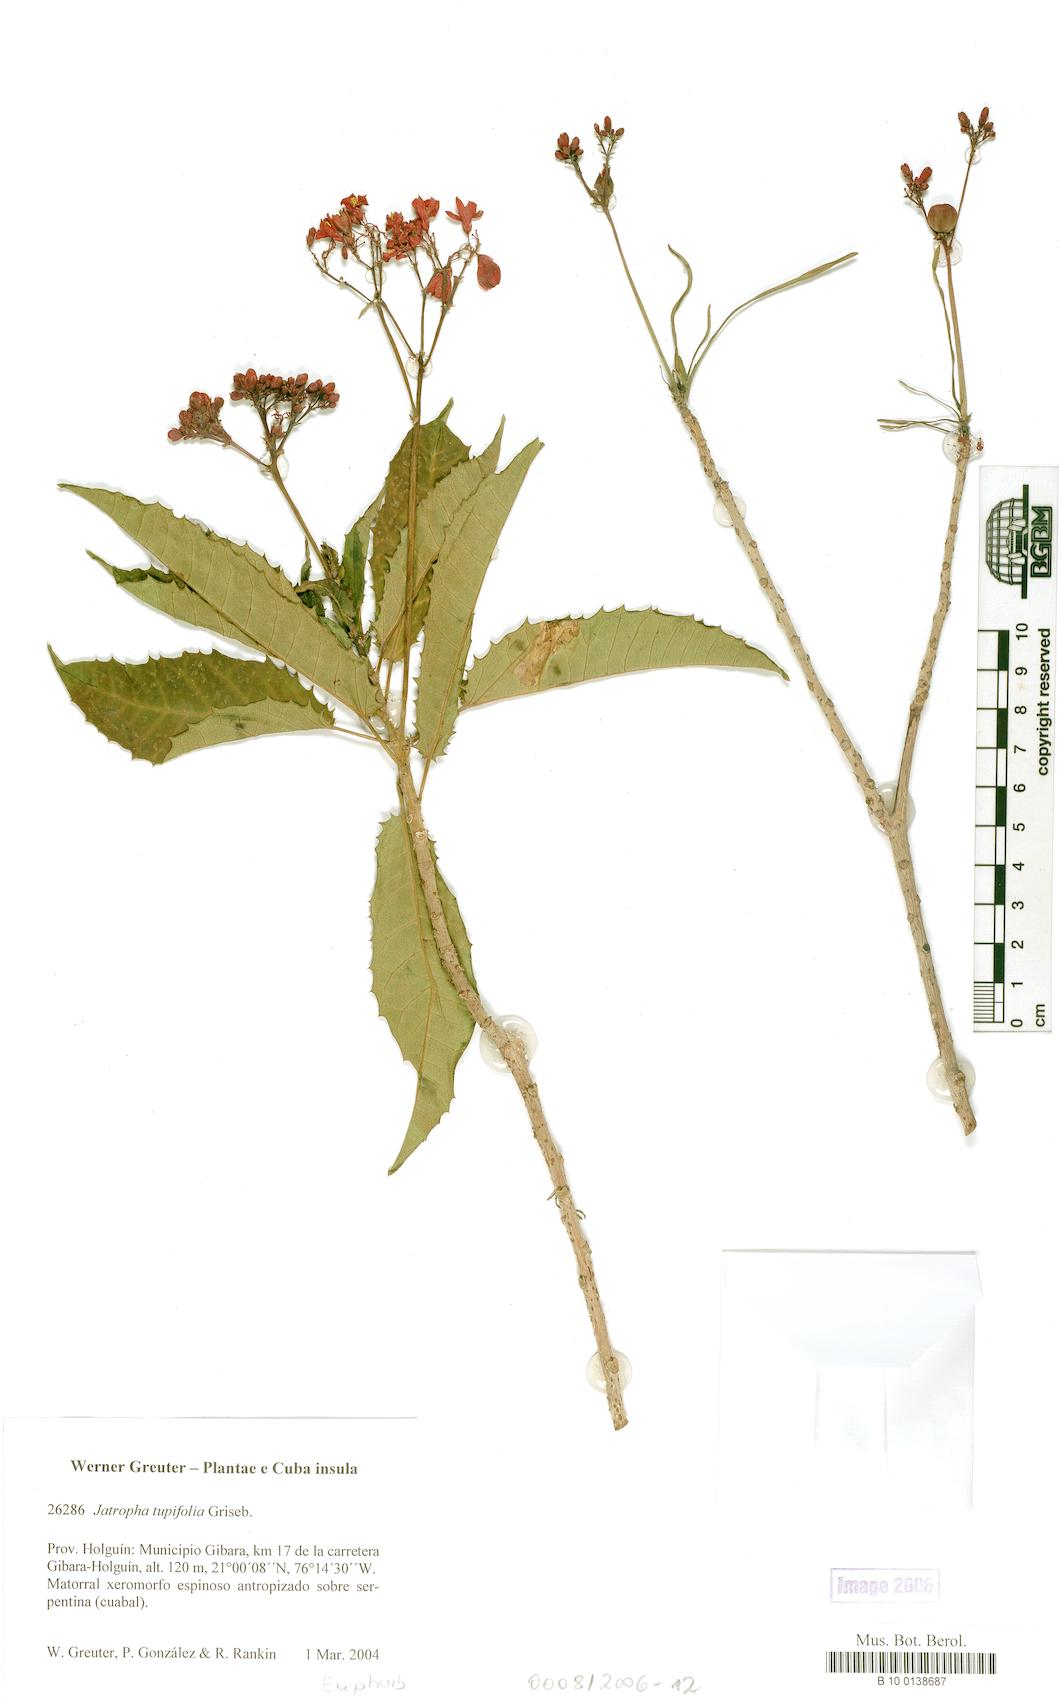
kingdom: Plantae
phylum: Tracheophyta
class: Magnoliopsida
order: Malpighiales
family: Euphorbiaceae
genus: Jatropha
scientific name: Jatropha tupifolia
